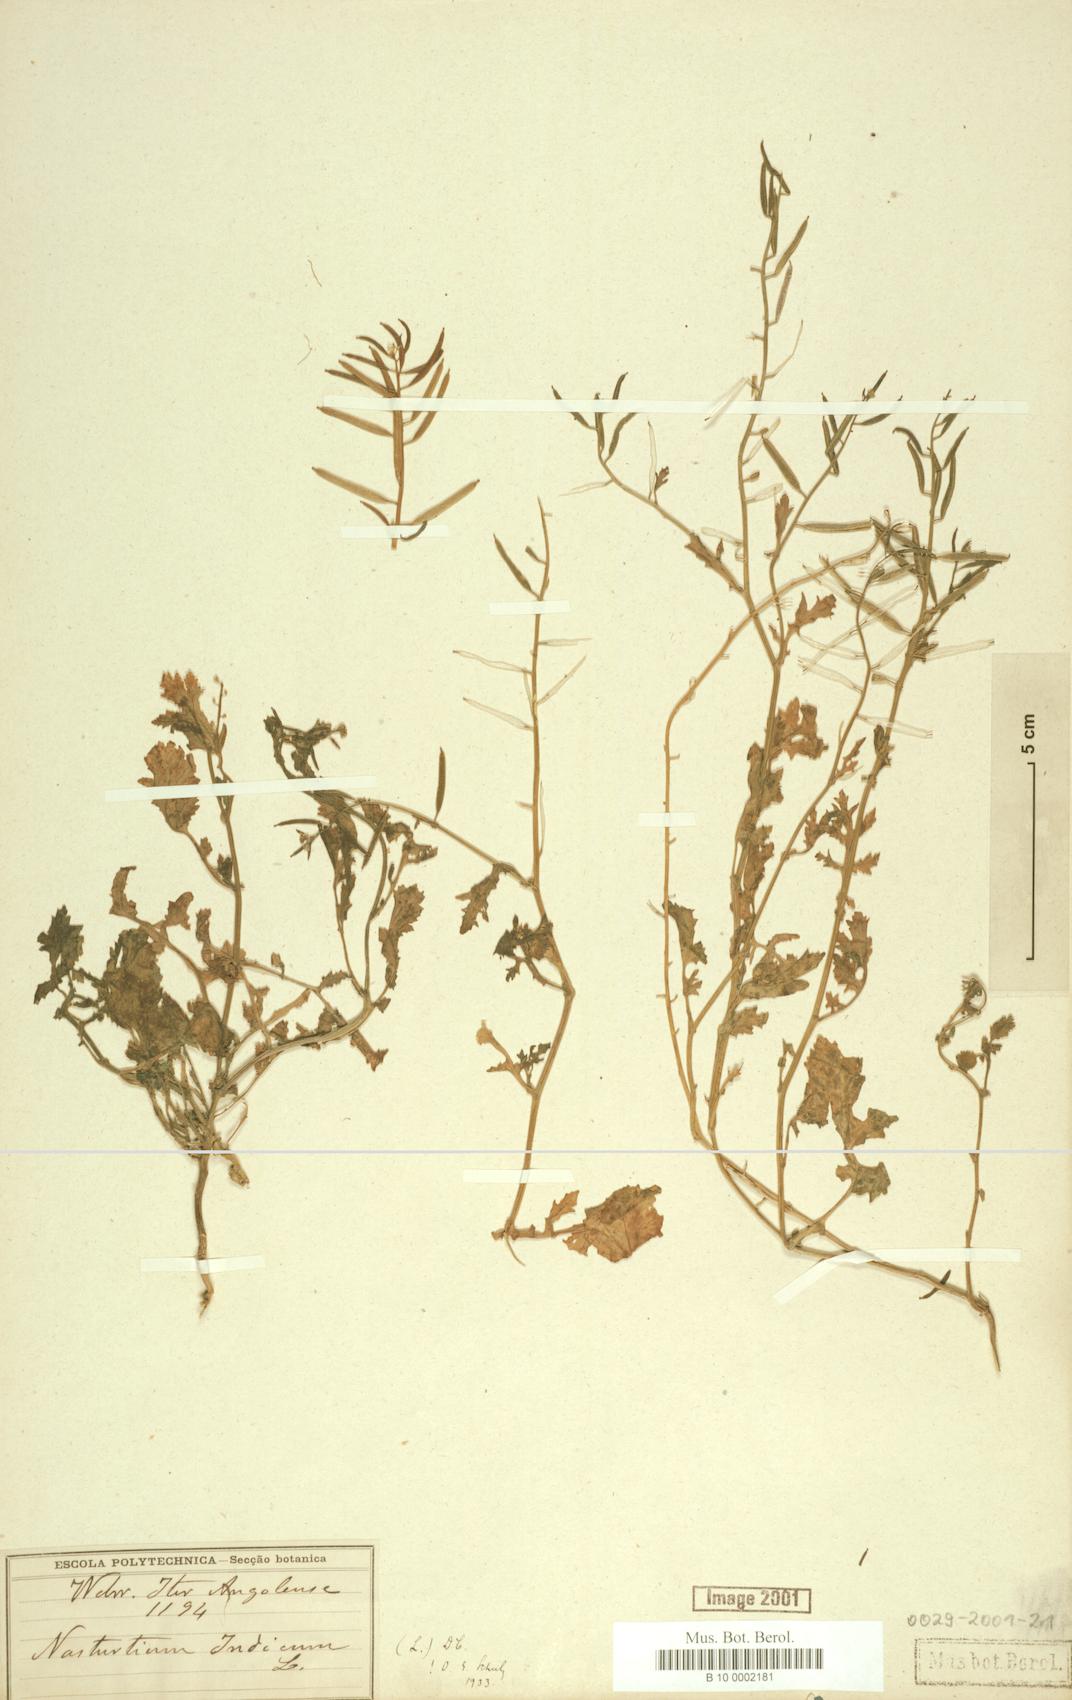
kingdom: Plantae
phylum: Tracheophyta
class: Magnoliopsida
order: Brassicales
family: Brassicaceae
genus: Rorippa
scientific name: Rorippa indica
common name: Variableleaf yellowcress
